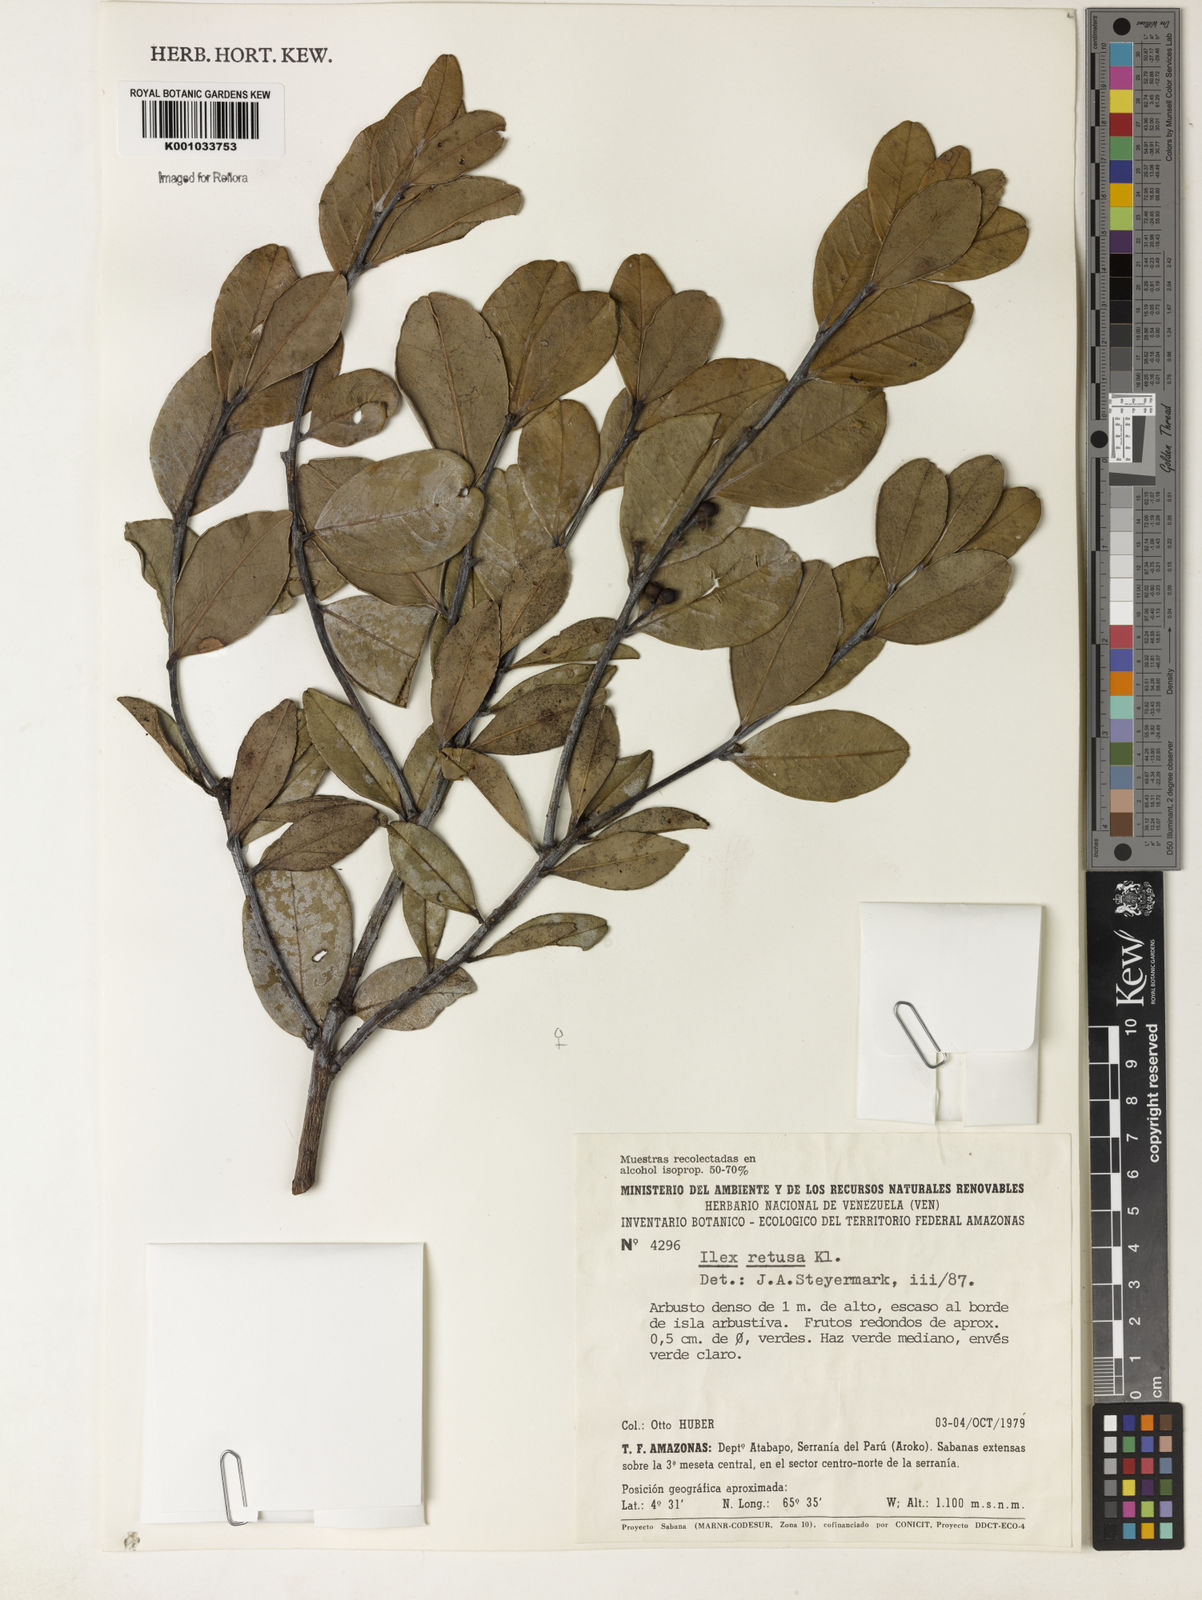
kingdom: Plantae
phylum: Tracheophyta
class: Magnoliopsida
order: Aquifoliales
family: Aquifoliaceae
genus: Ilex
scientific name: Ilex
